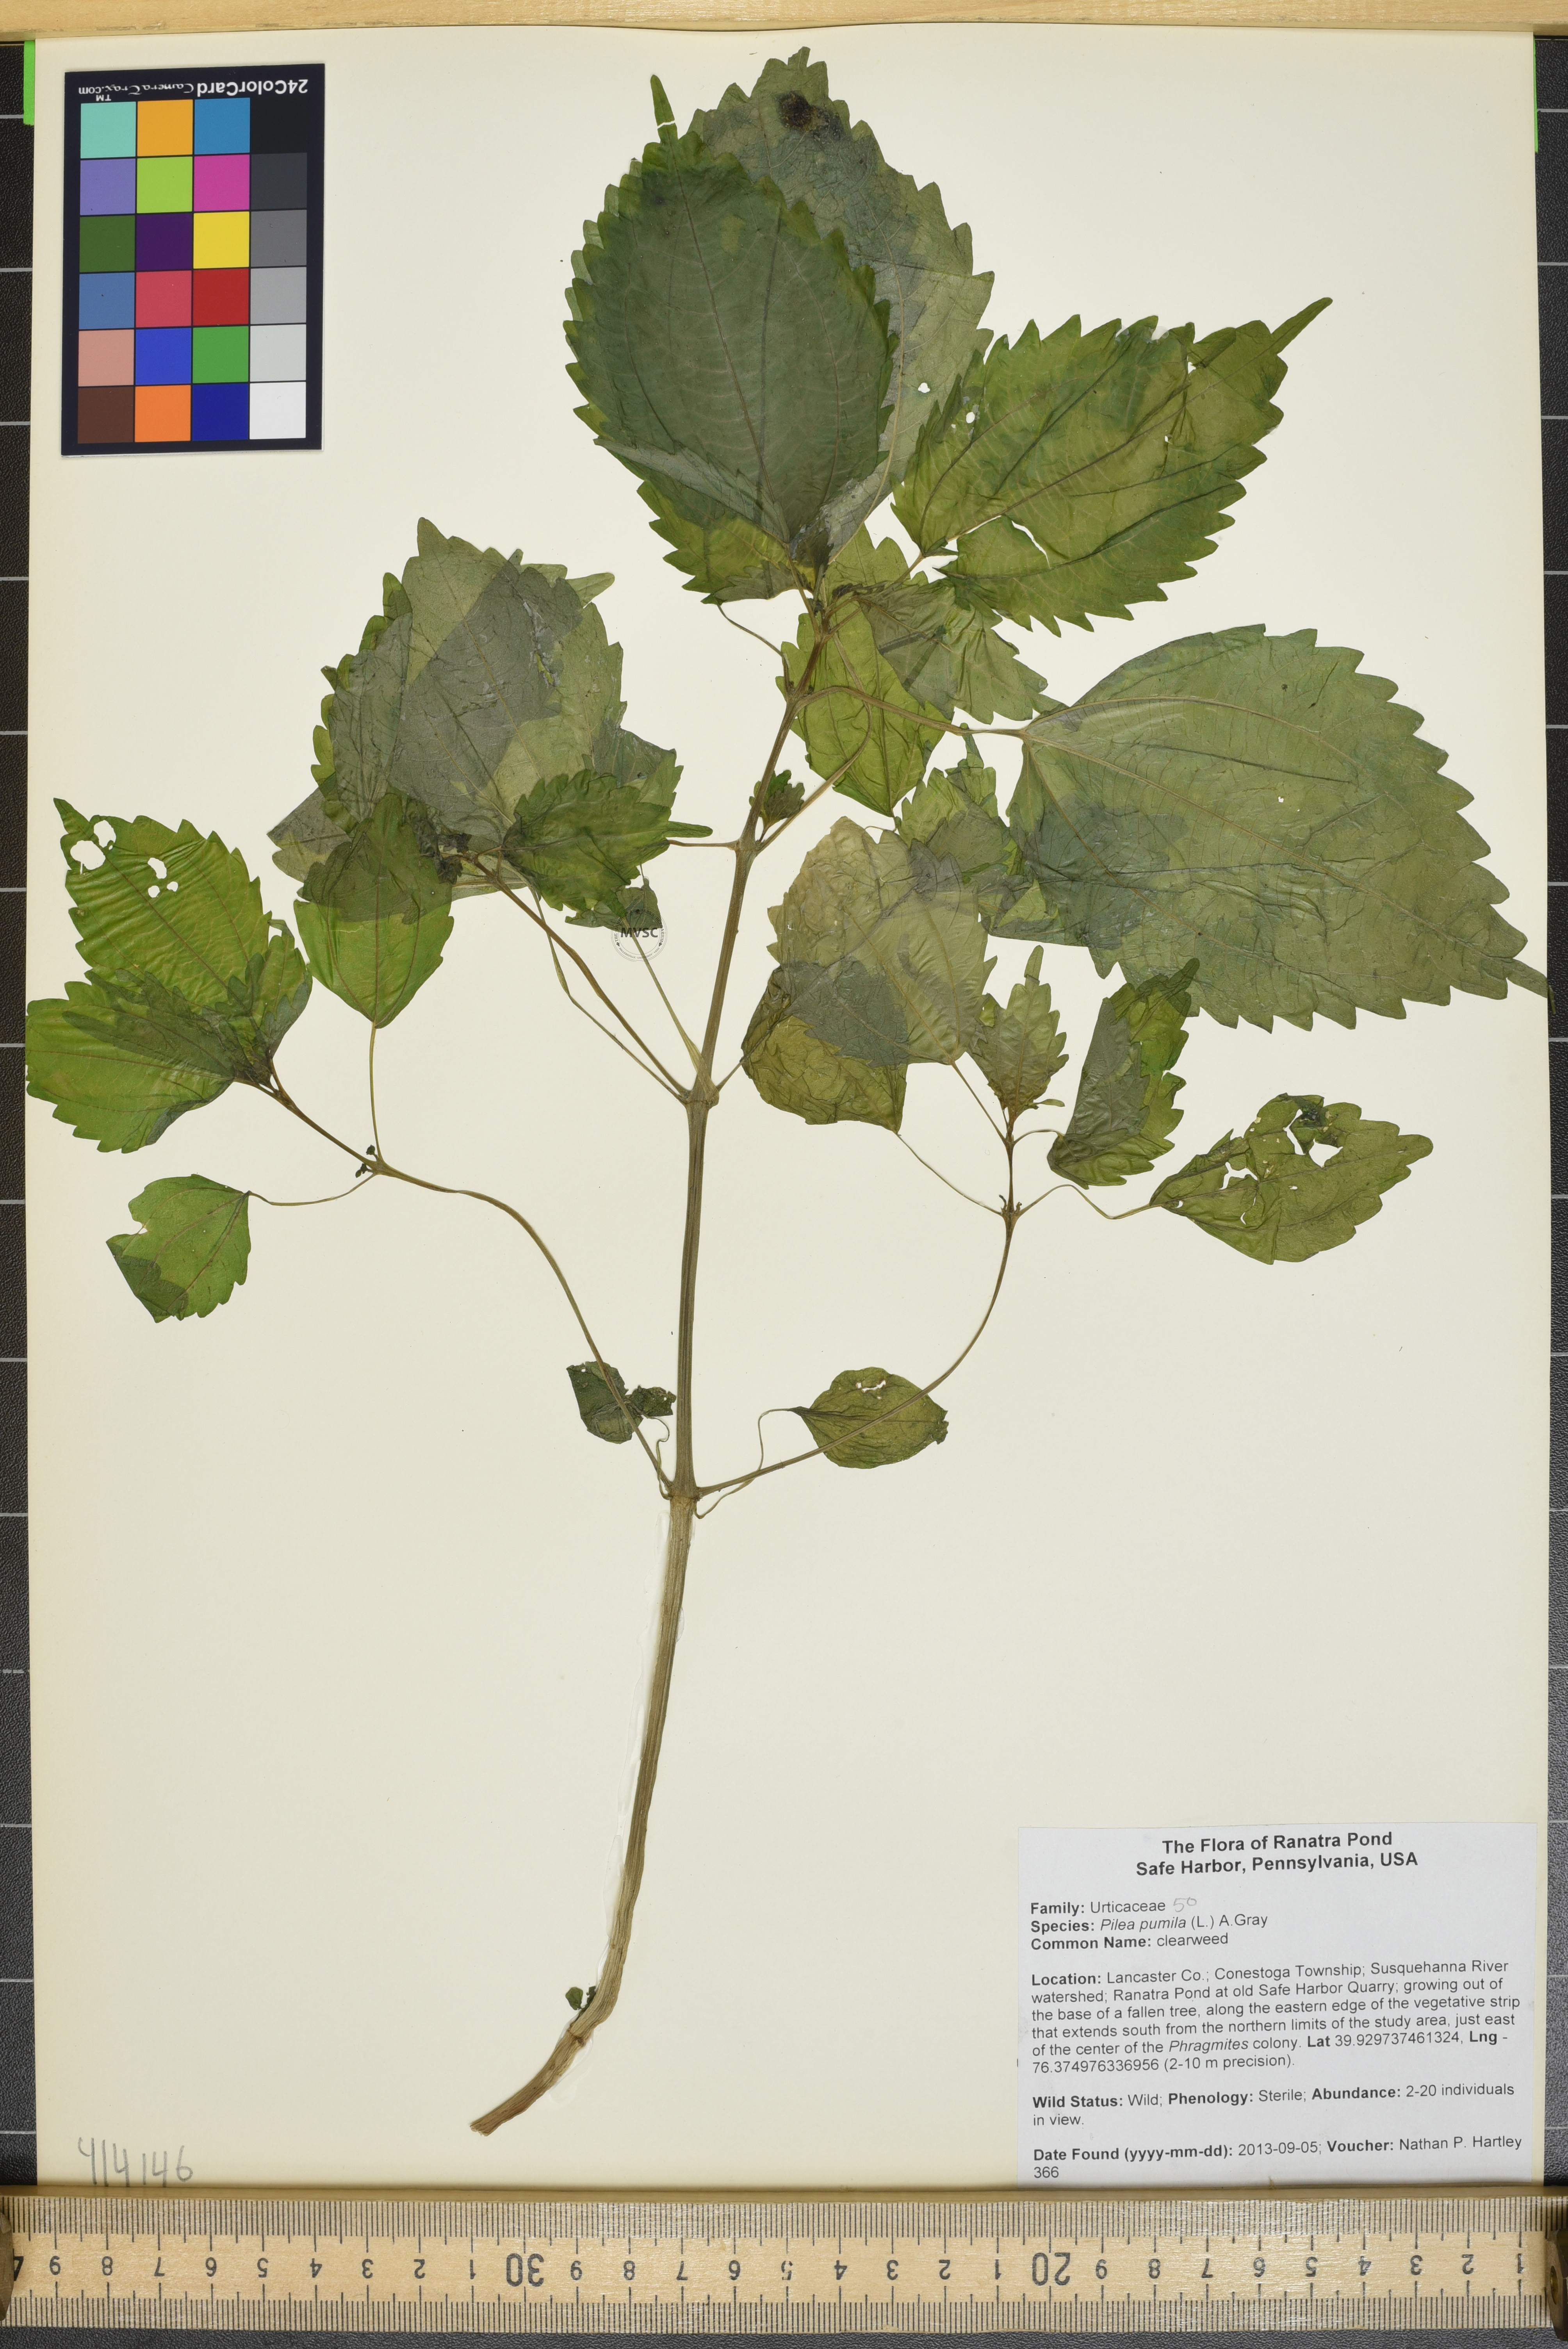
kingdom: Plantae
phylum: Tracheophyta
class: Magnoliopsida
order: Rosales
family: Urticaceae
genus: Pilea
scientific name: Pilea pumila
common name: clearweed
